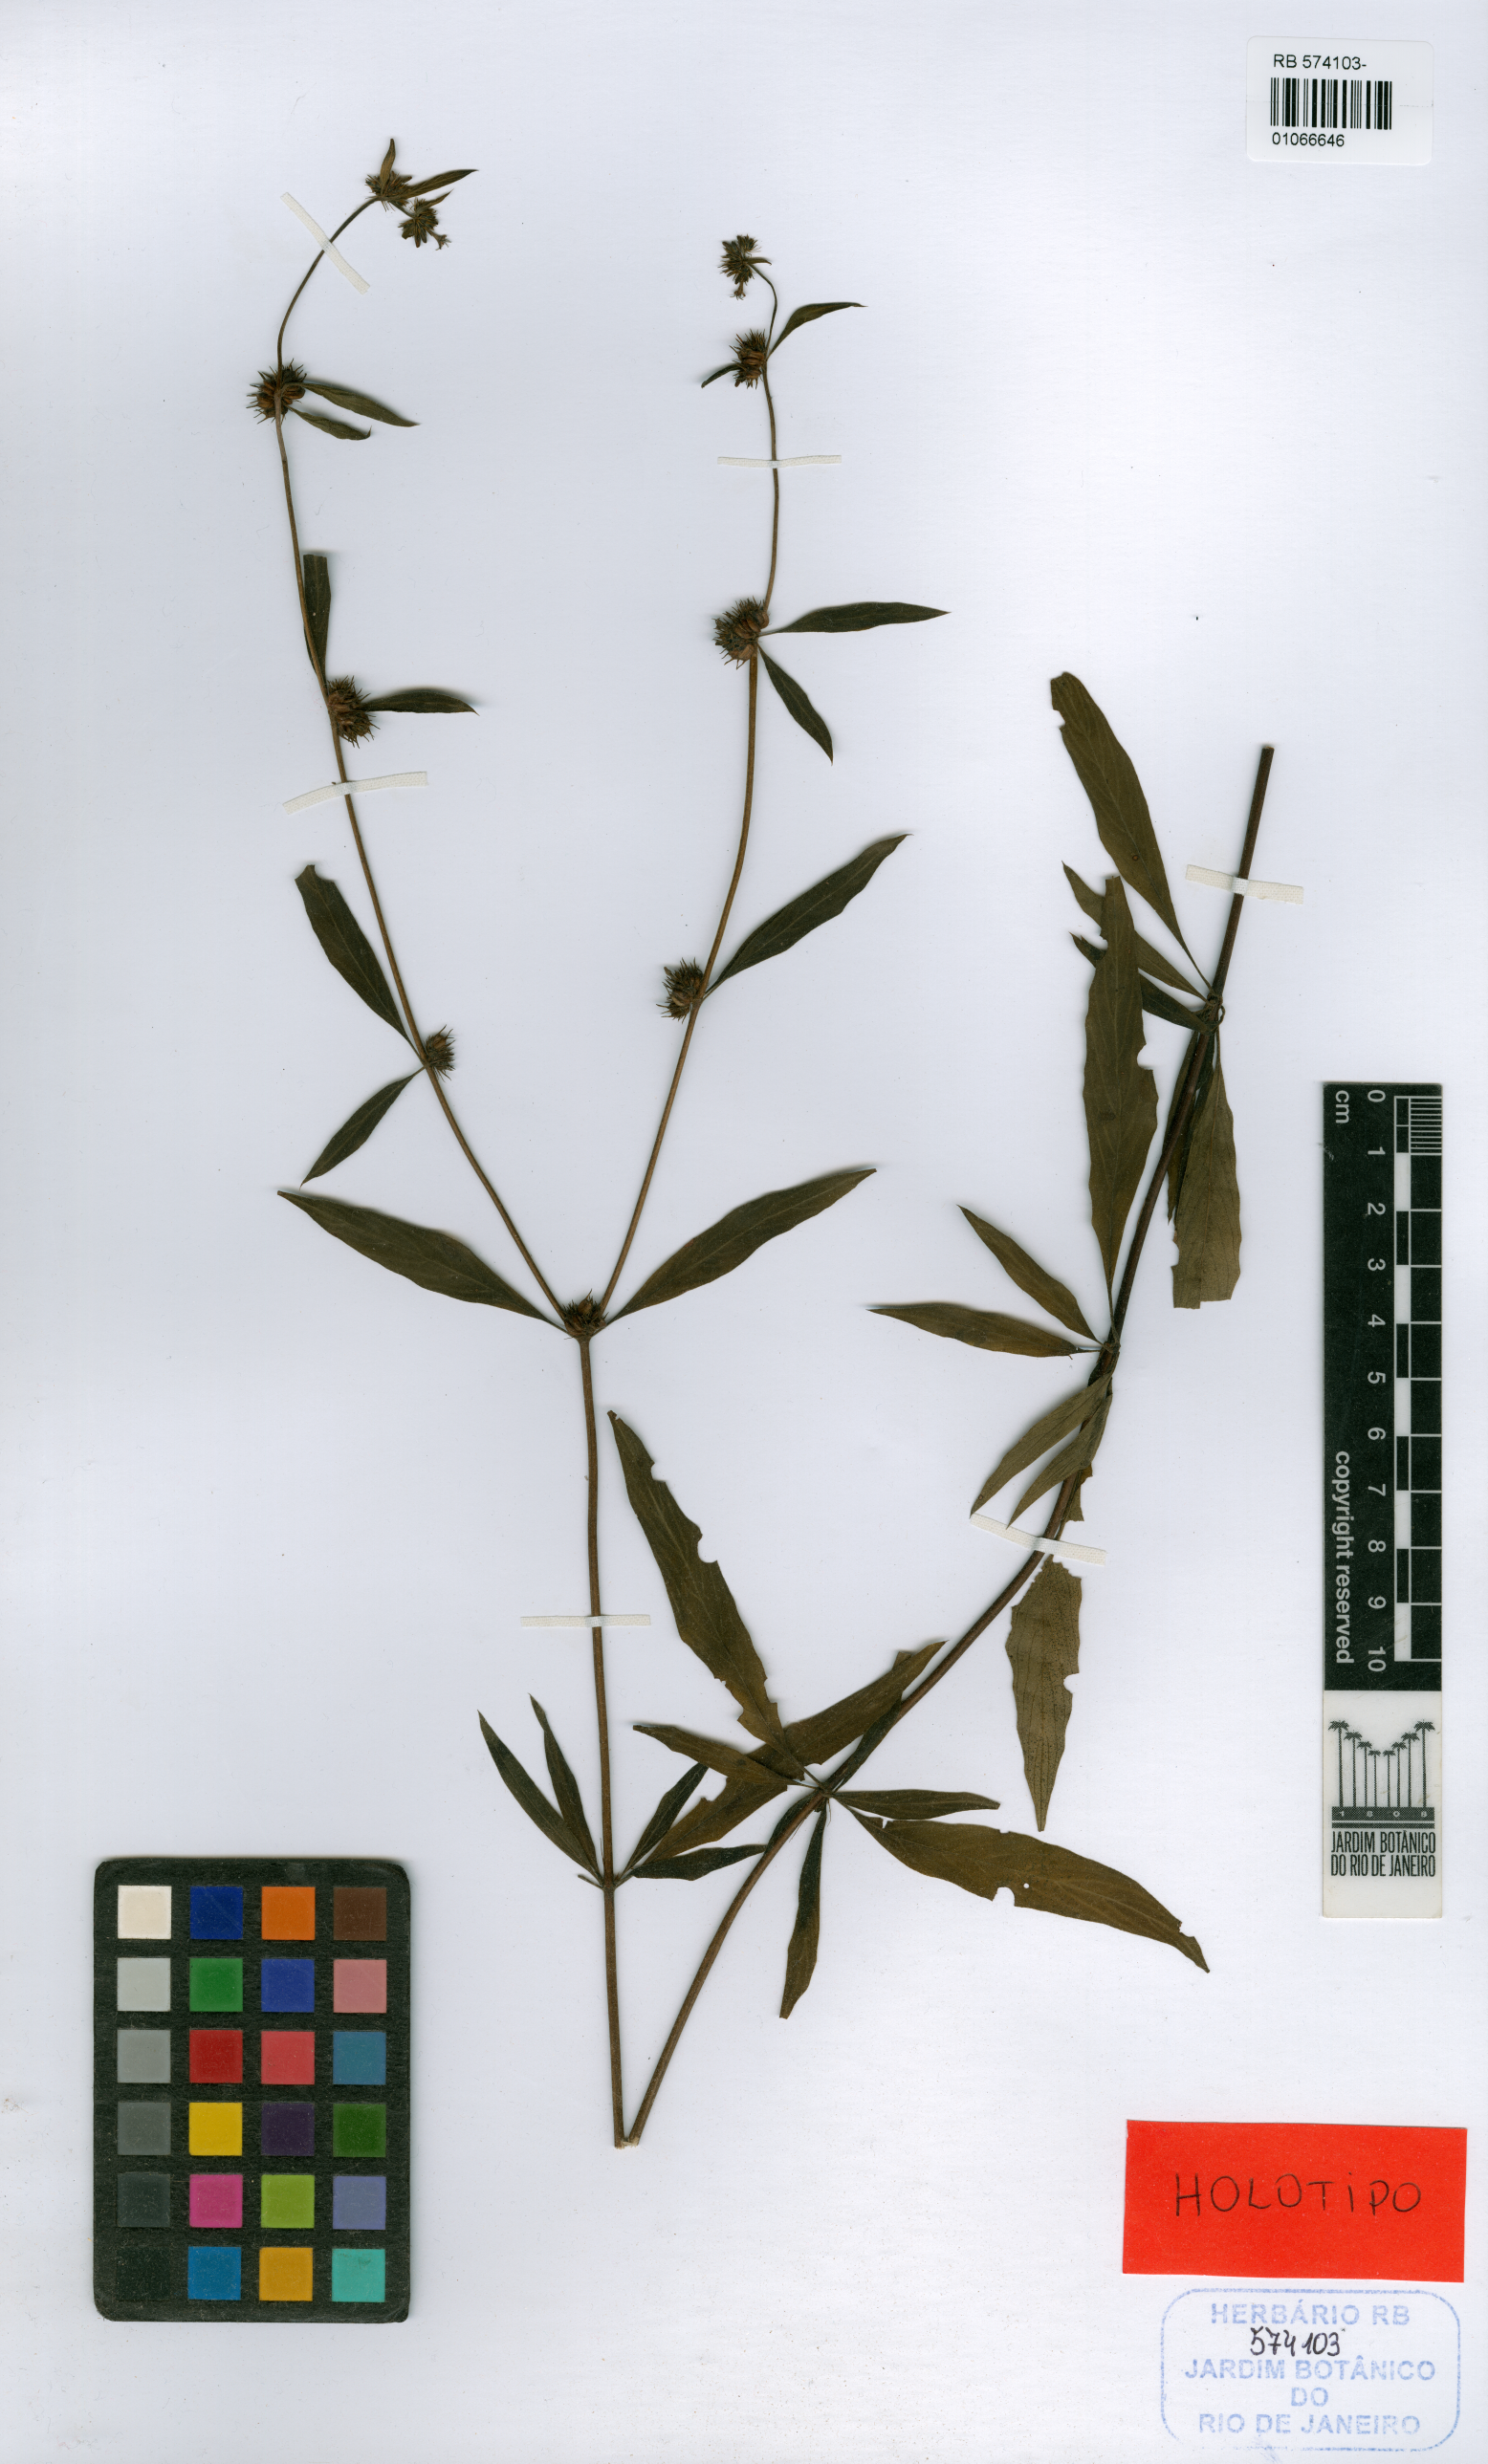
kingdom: Plantae
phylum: Tracheophyta
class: Magnoliopsida
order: Gentianales
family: Rubiaceae
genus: Bradea
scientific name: Bradea borrerioides
